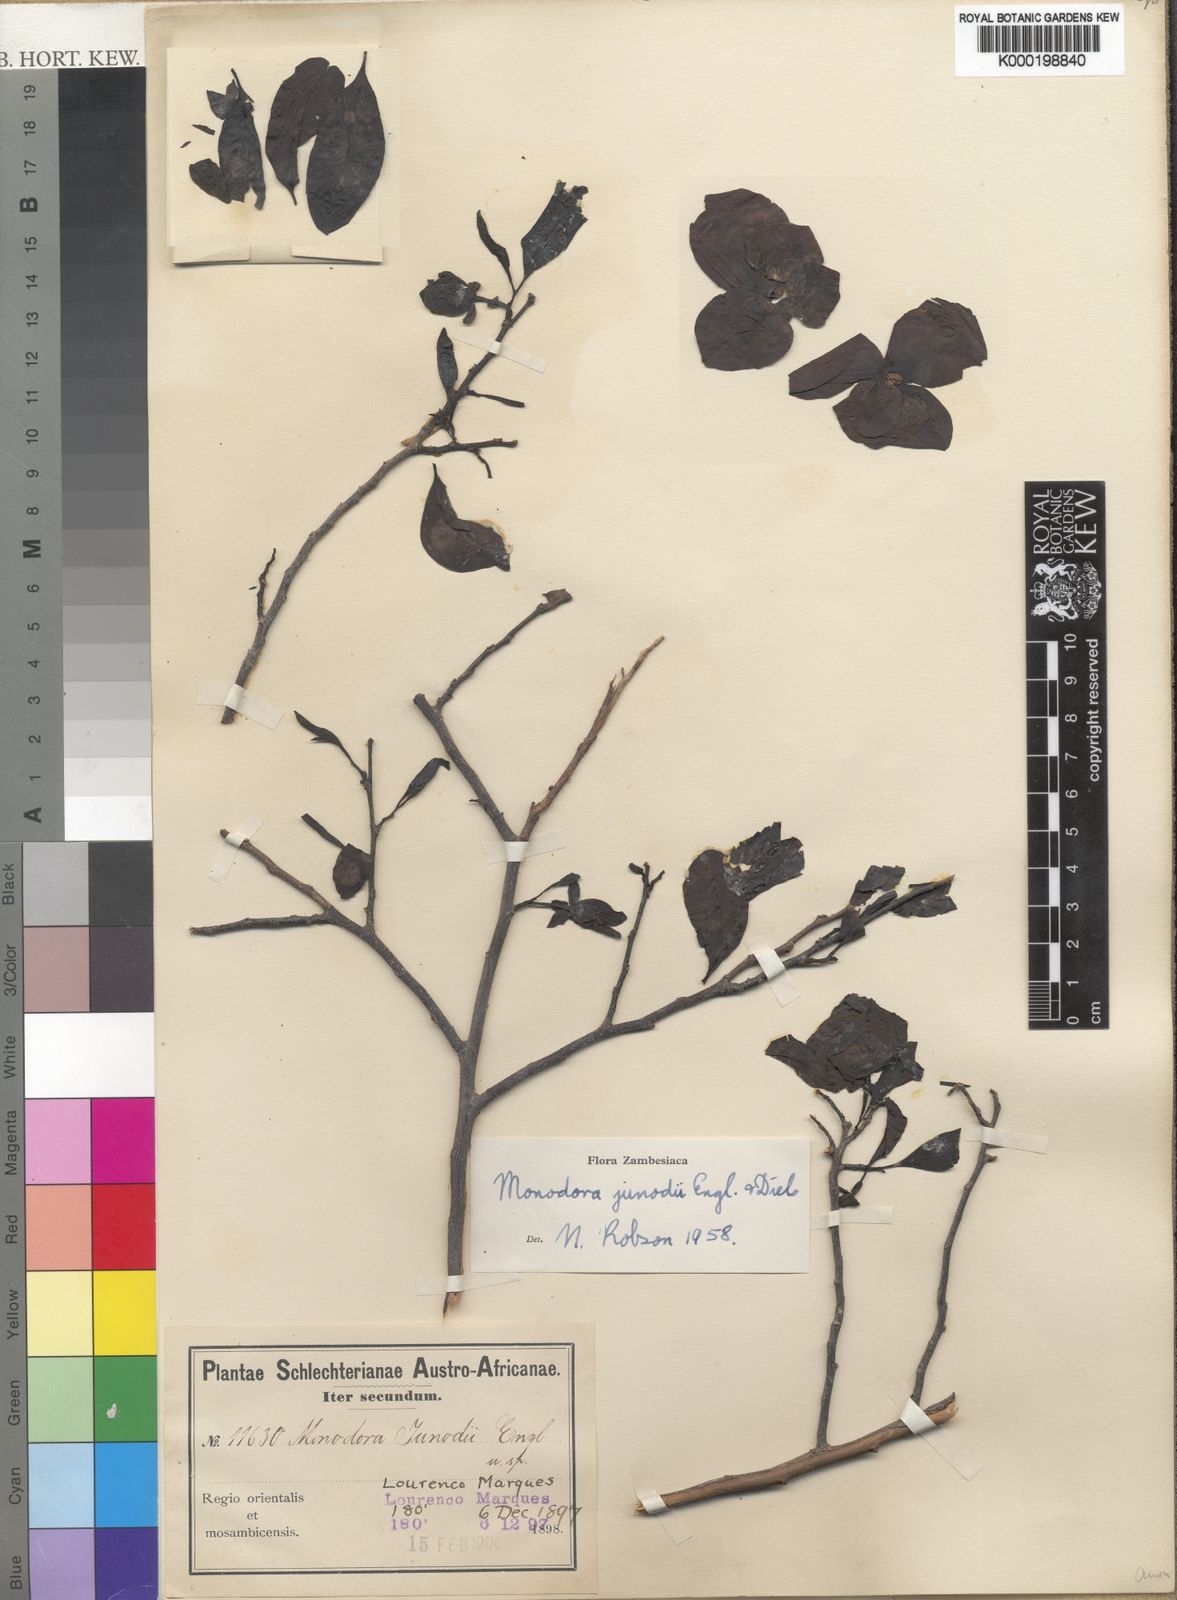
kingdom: Plantae
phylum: Tracheophyta
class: Magnoliopsida
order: Magnoliales
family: Annonaceae
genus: Monodora
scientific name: Monodora junodii
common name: Green-apple
